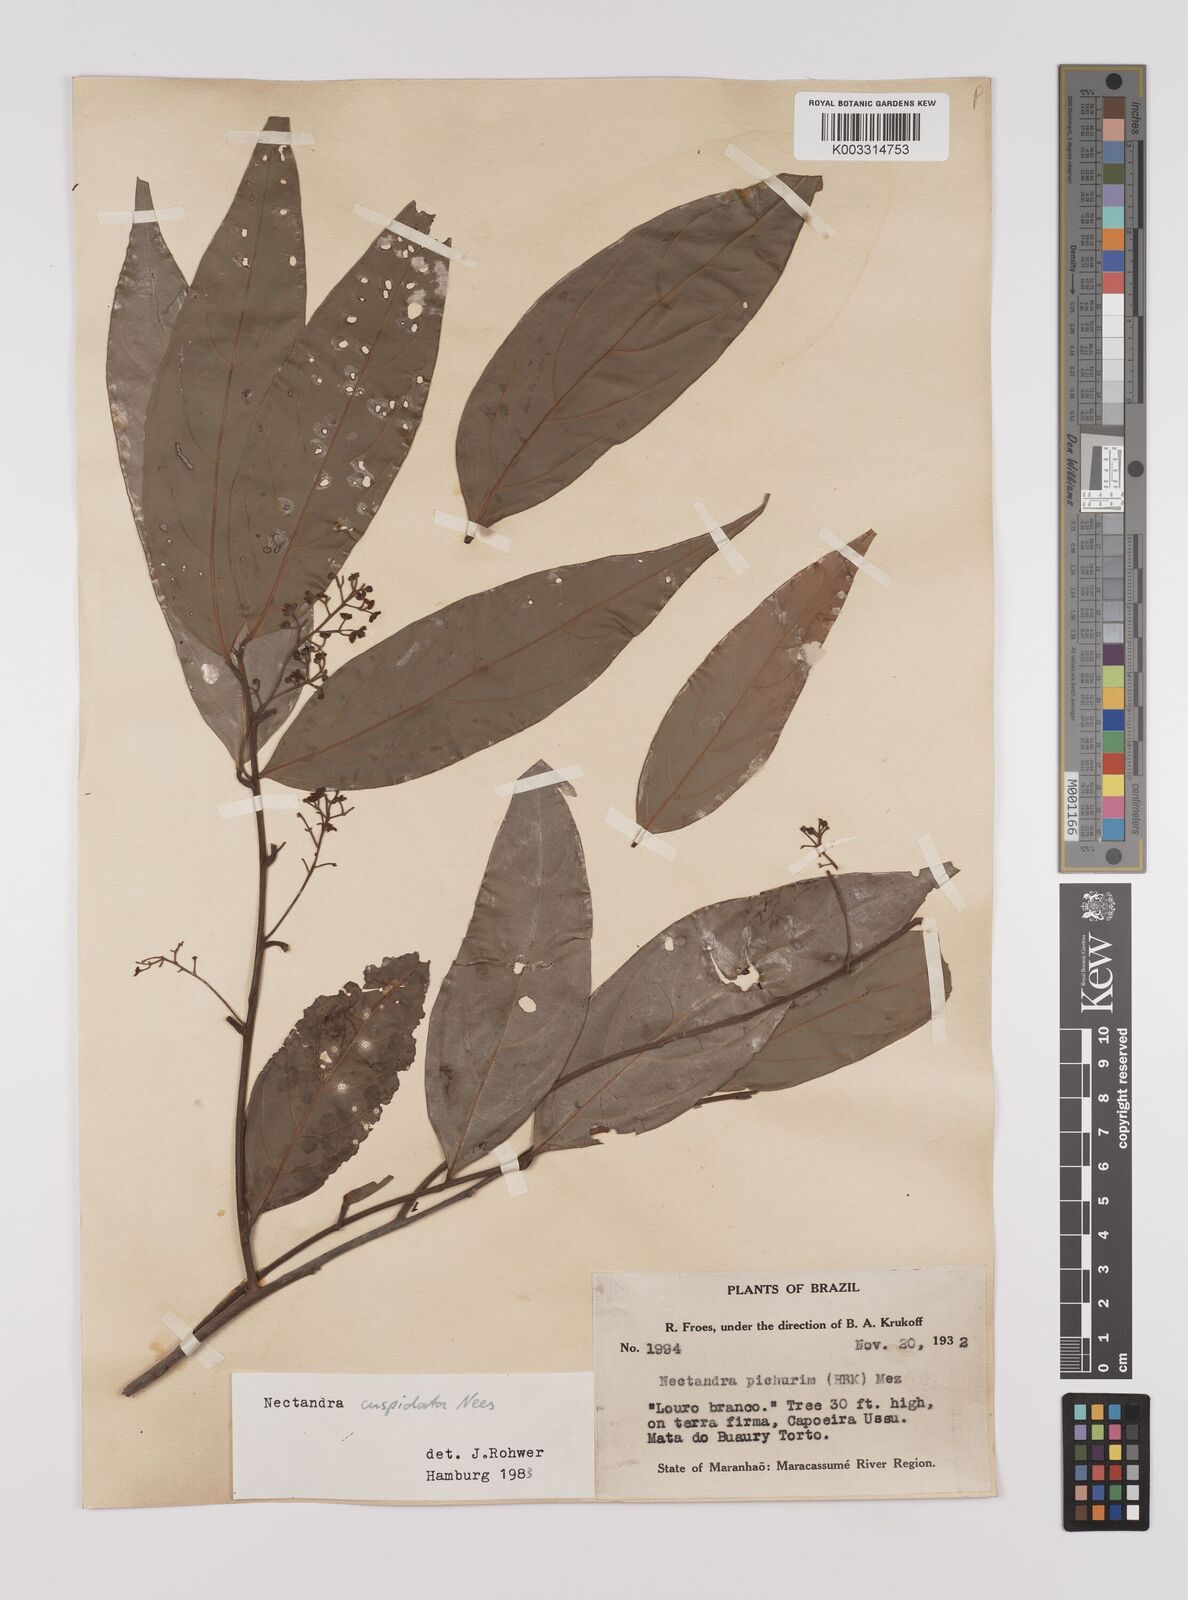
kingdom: Plantae
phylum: Tracheophyta
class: Magnoliopsida
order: Laurales
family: Lauraceae
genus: Nectandra
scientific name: Nectandra cuspidata
